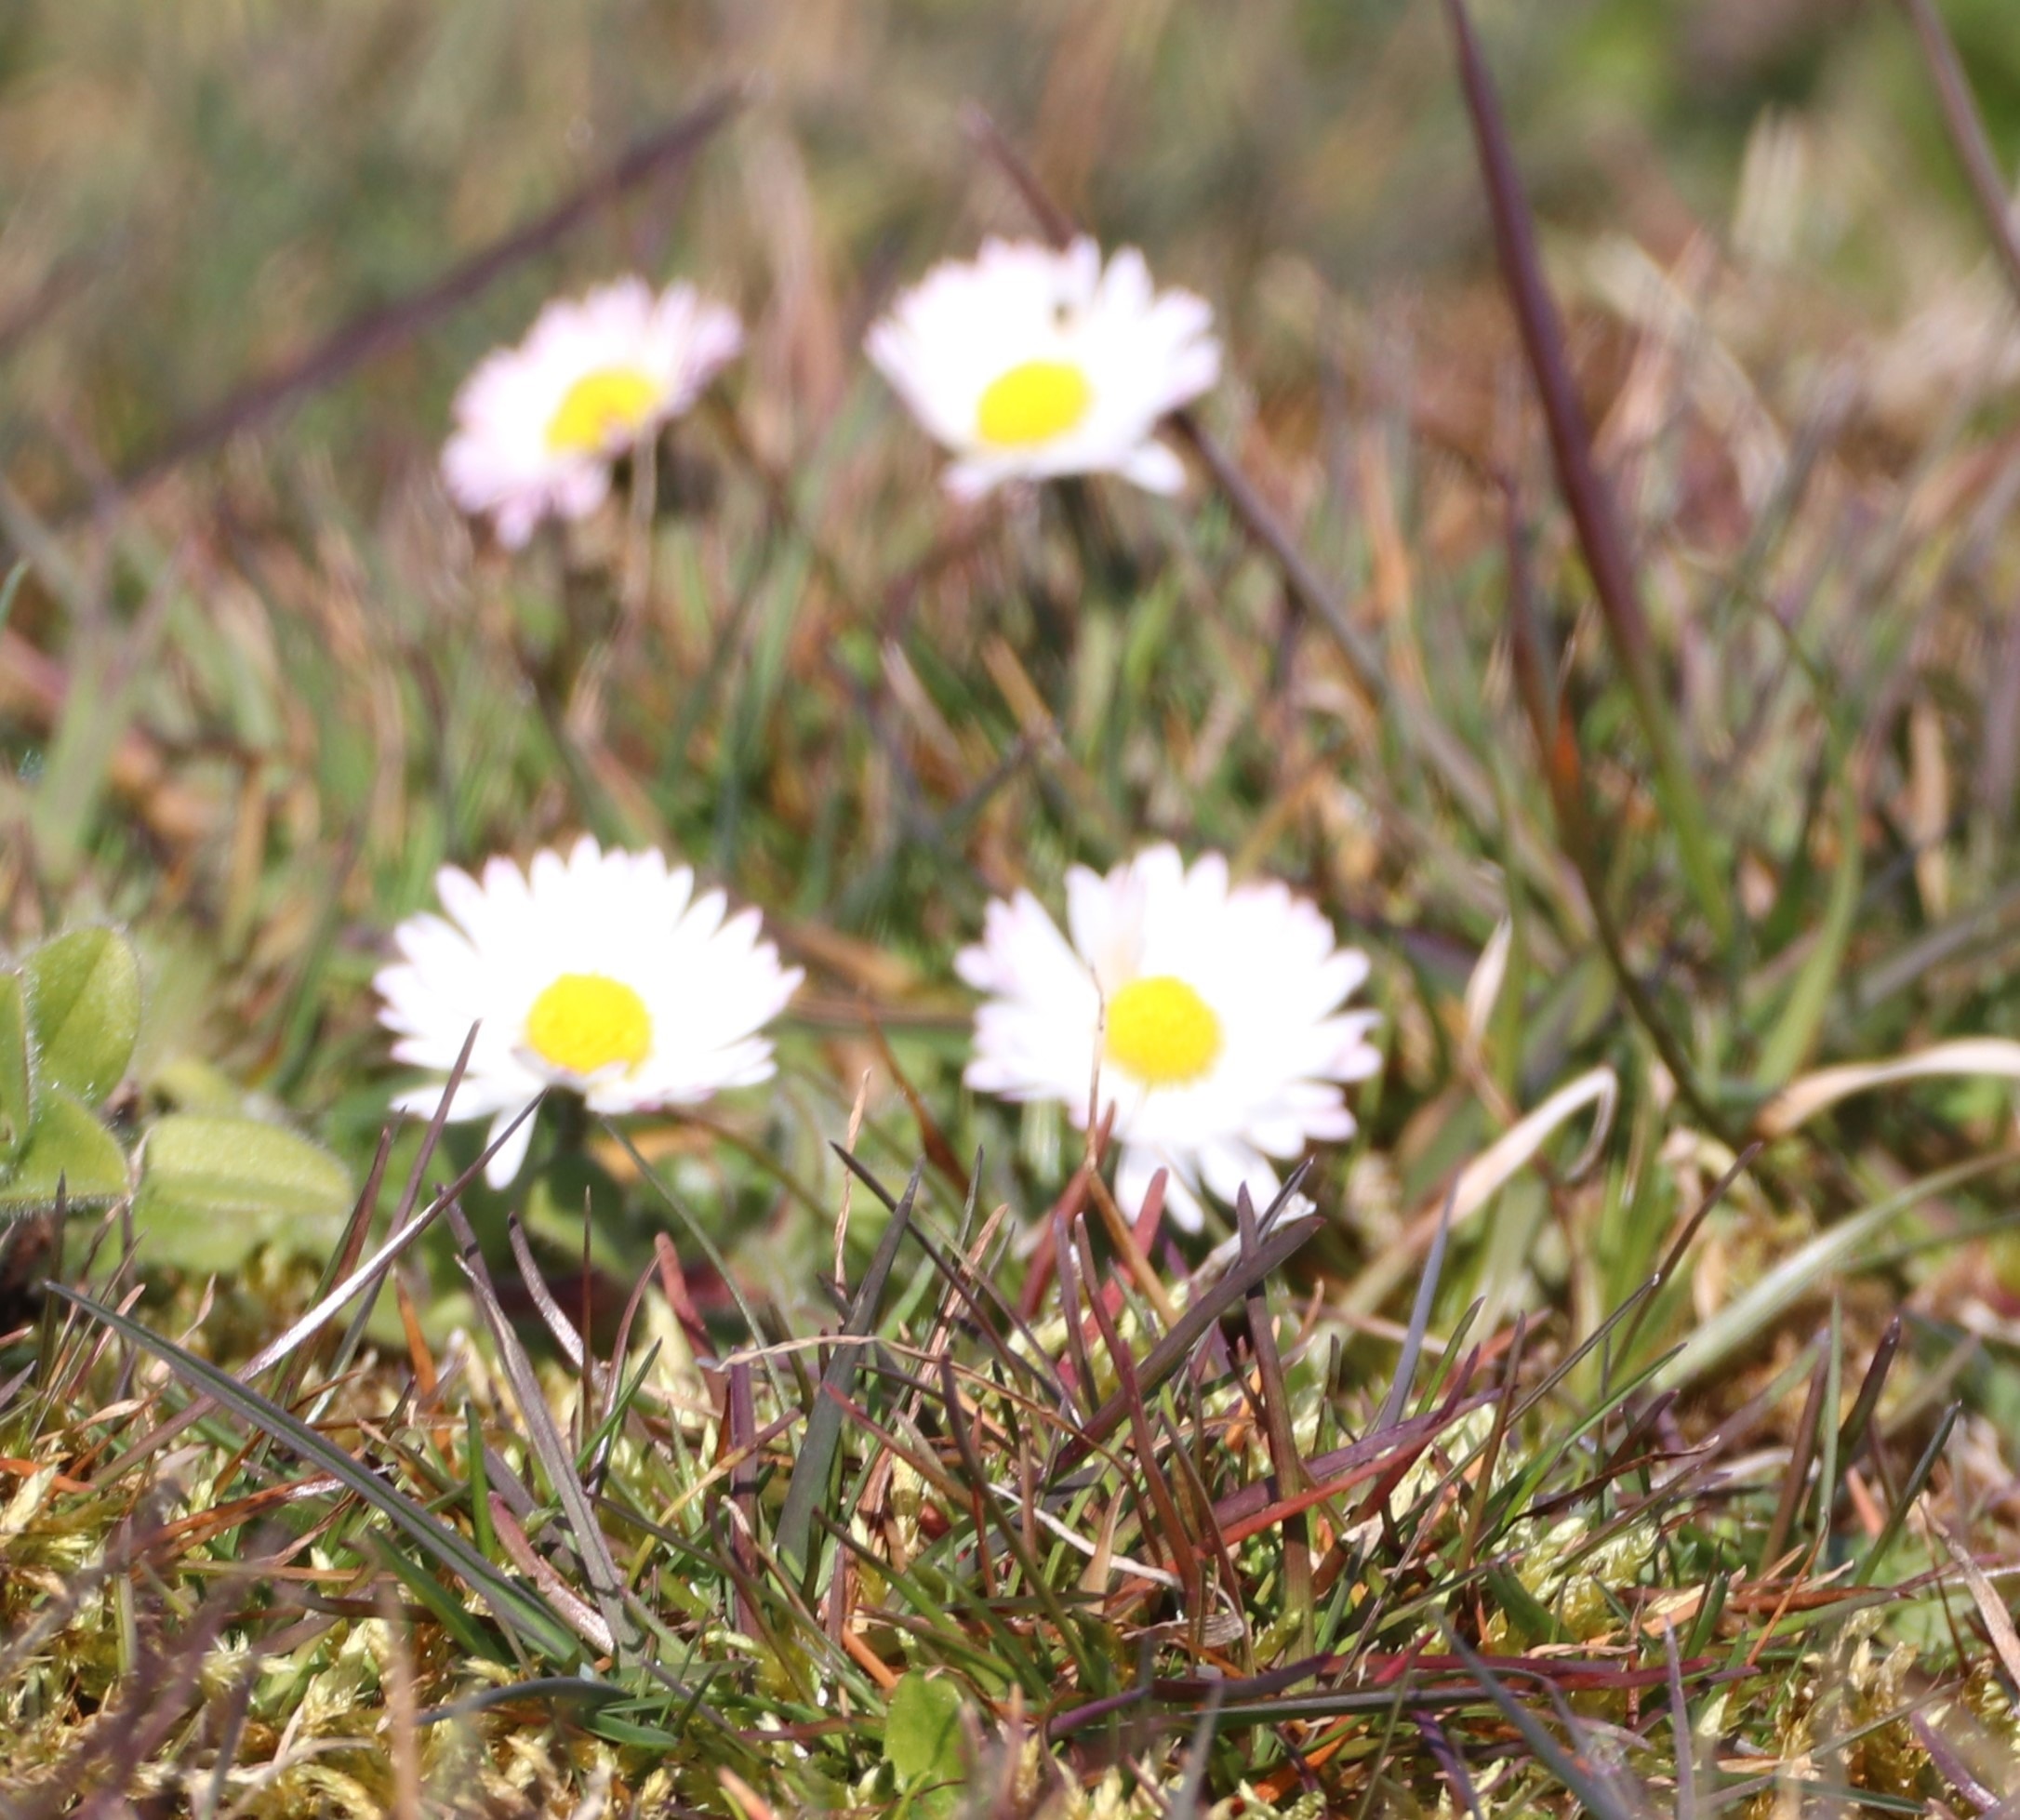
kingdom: Plantae
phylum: Tracheophyta
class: Magnoliopsida
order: Asterales
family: Asteraceae
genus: Bellis
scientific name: Bellis perennis
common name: Tusindfryd
